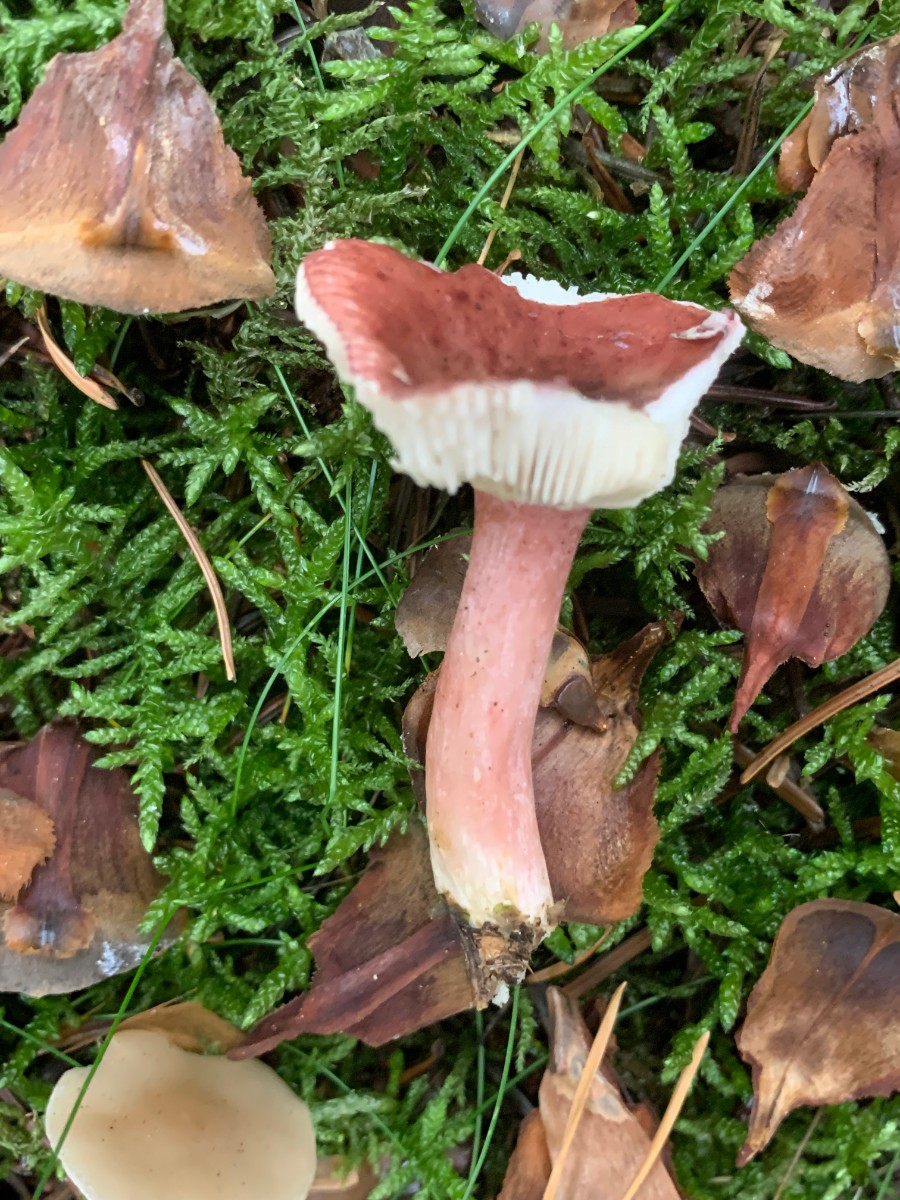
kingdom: Fungi
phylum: Basidiomycota
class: Agaricomycetes
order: Russulales
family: Russulaceae
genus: Russula
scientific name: Russula queletii
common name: Quélets skørhat
